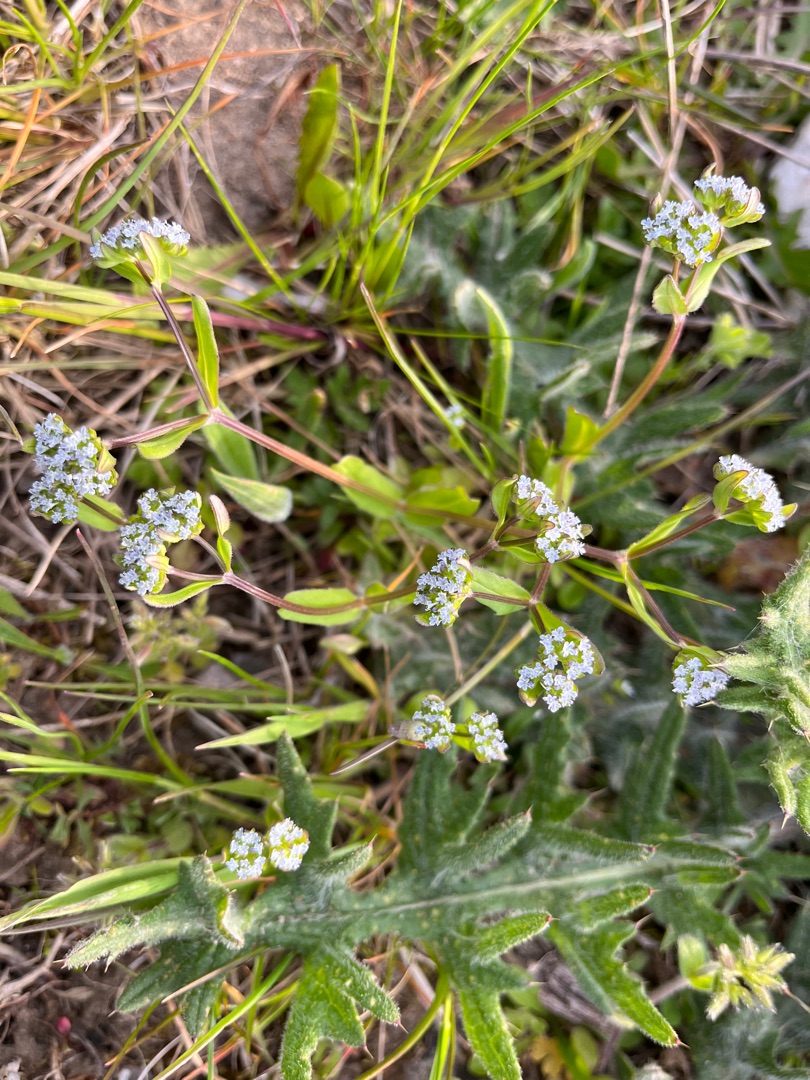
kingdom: Plantae
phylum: Tracheophyta
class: Magnoliopsida
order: Dipsacales
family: Caprifoliaceae
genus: Valerianella
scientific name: Valerianella locusta
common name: Tandfri vårsalat
